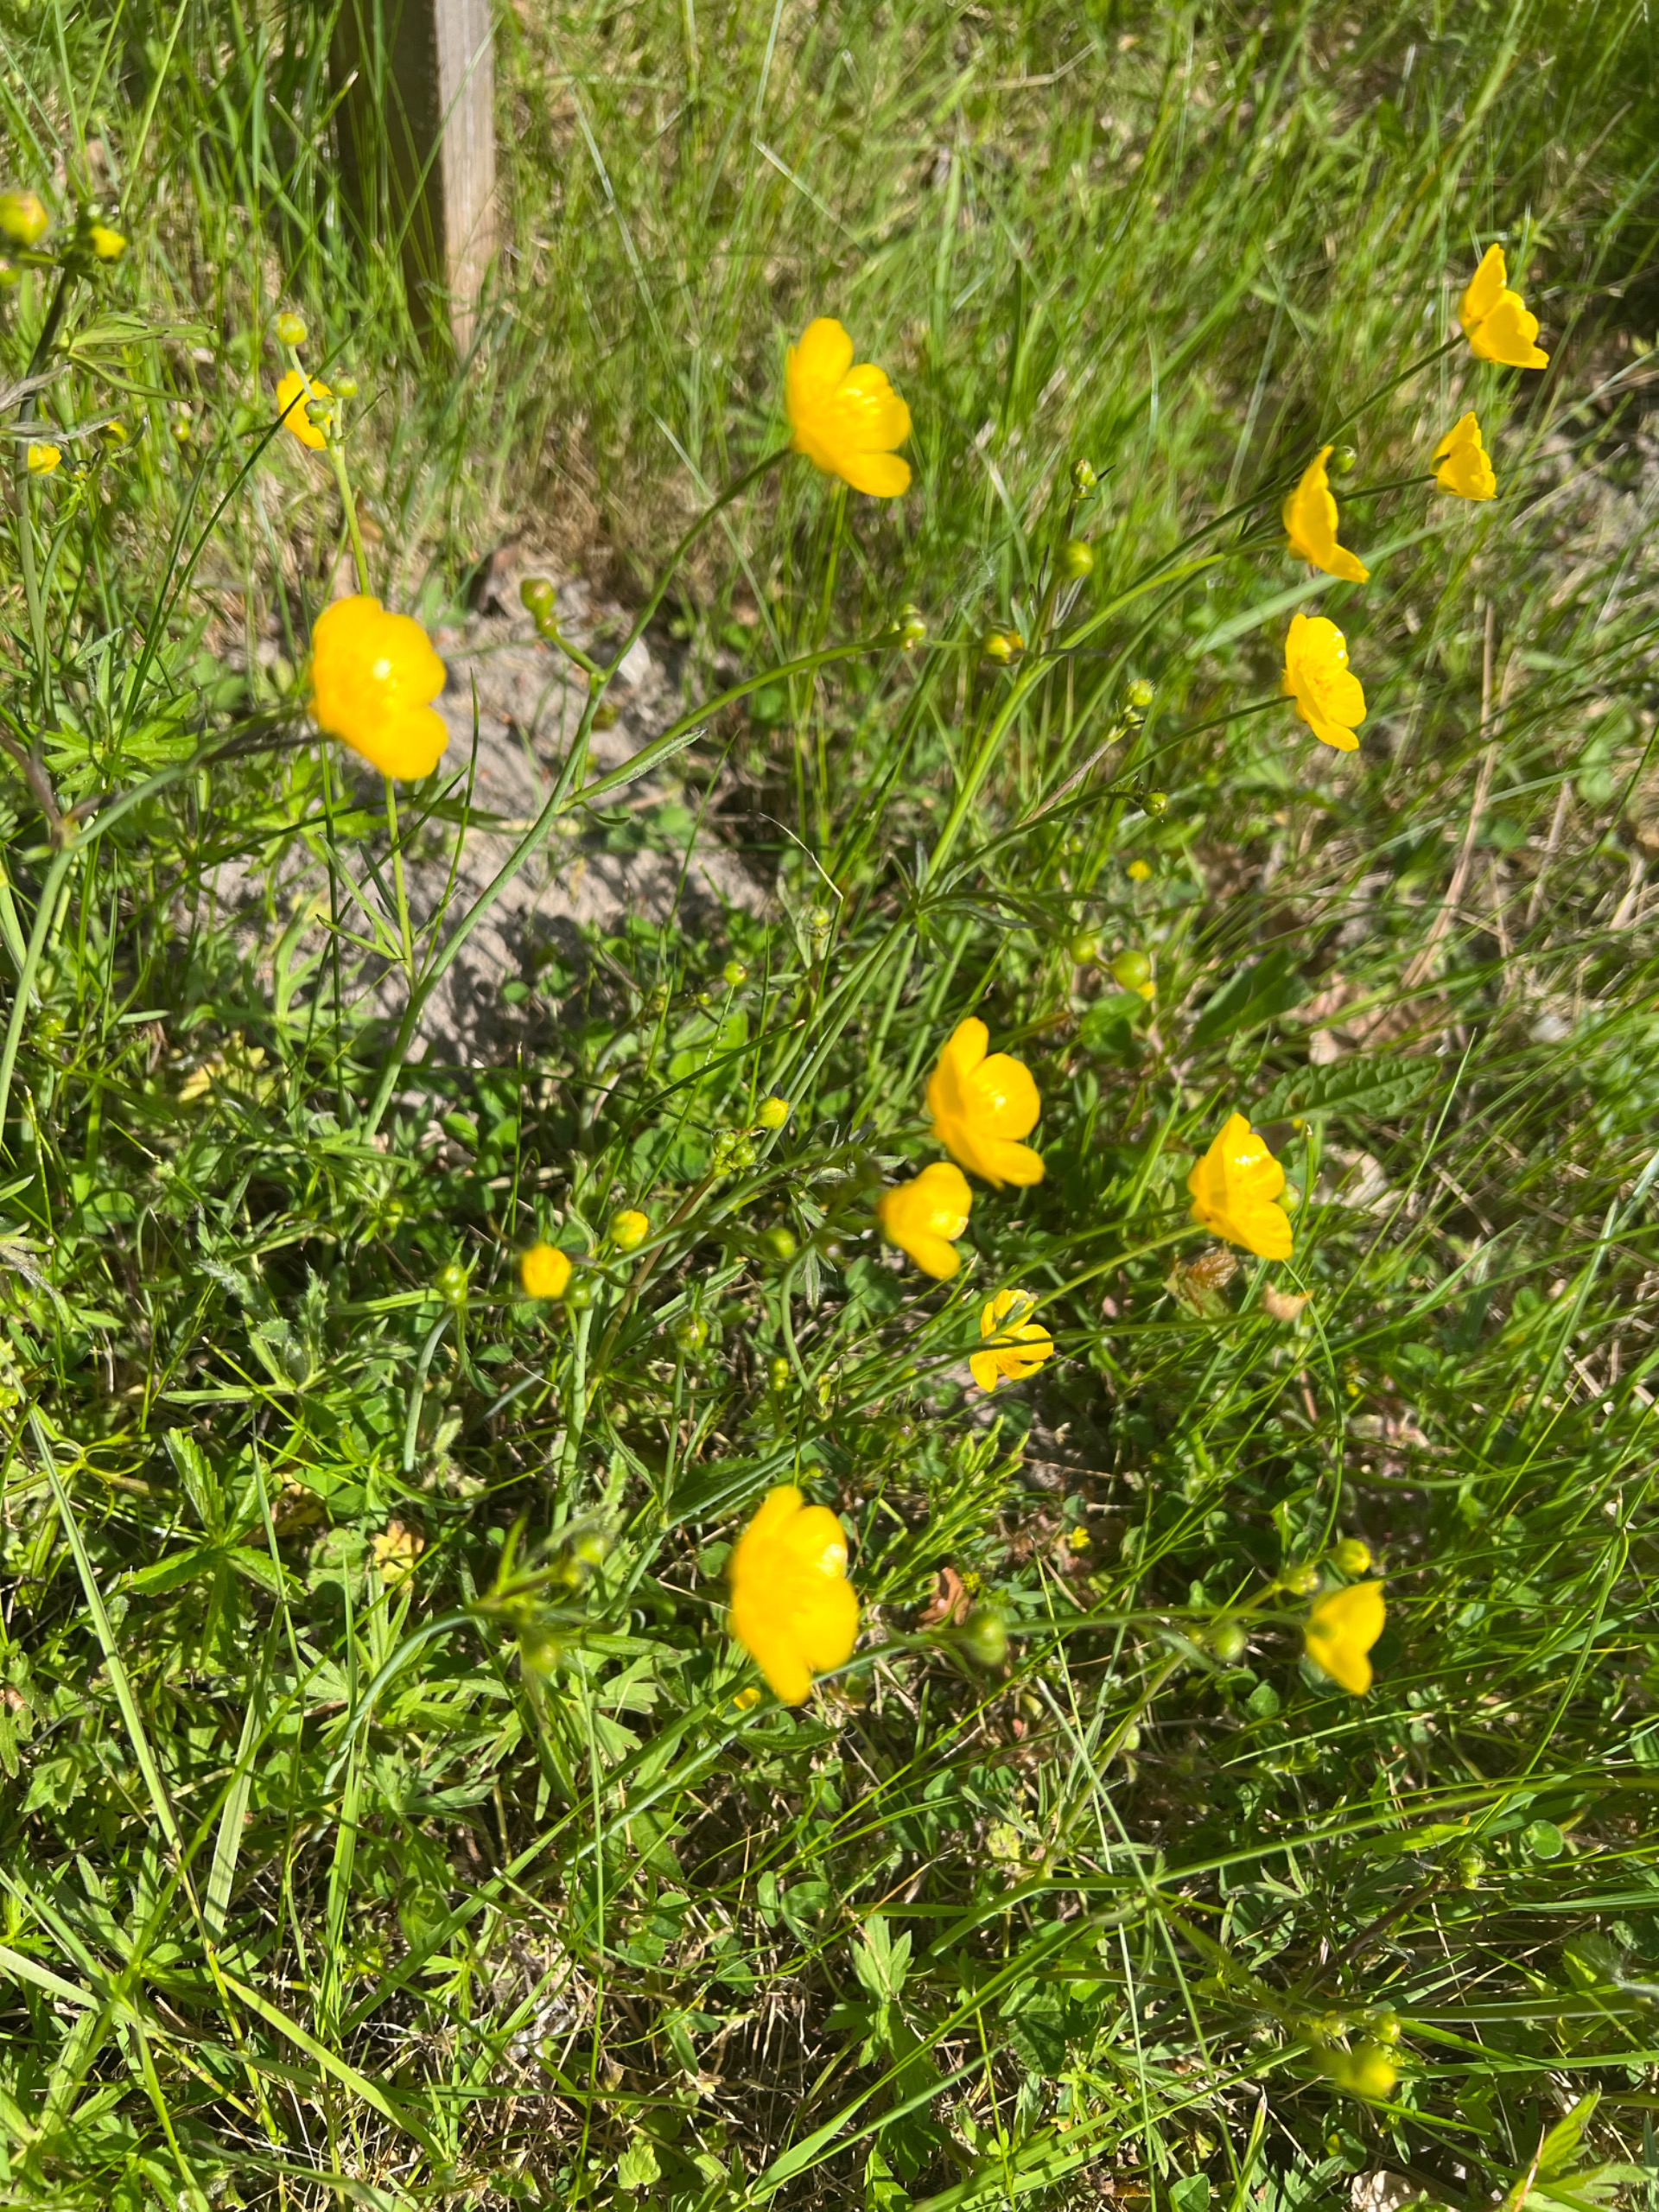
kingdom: Plantae
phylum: Tracheophyta
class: Magnoliopsida
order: Ranunculales
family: Ranunculaceae
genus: Ranunculus
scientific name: Ranunculus acris
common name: Bidende ranunkel
